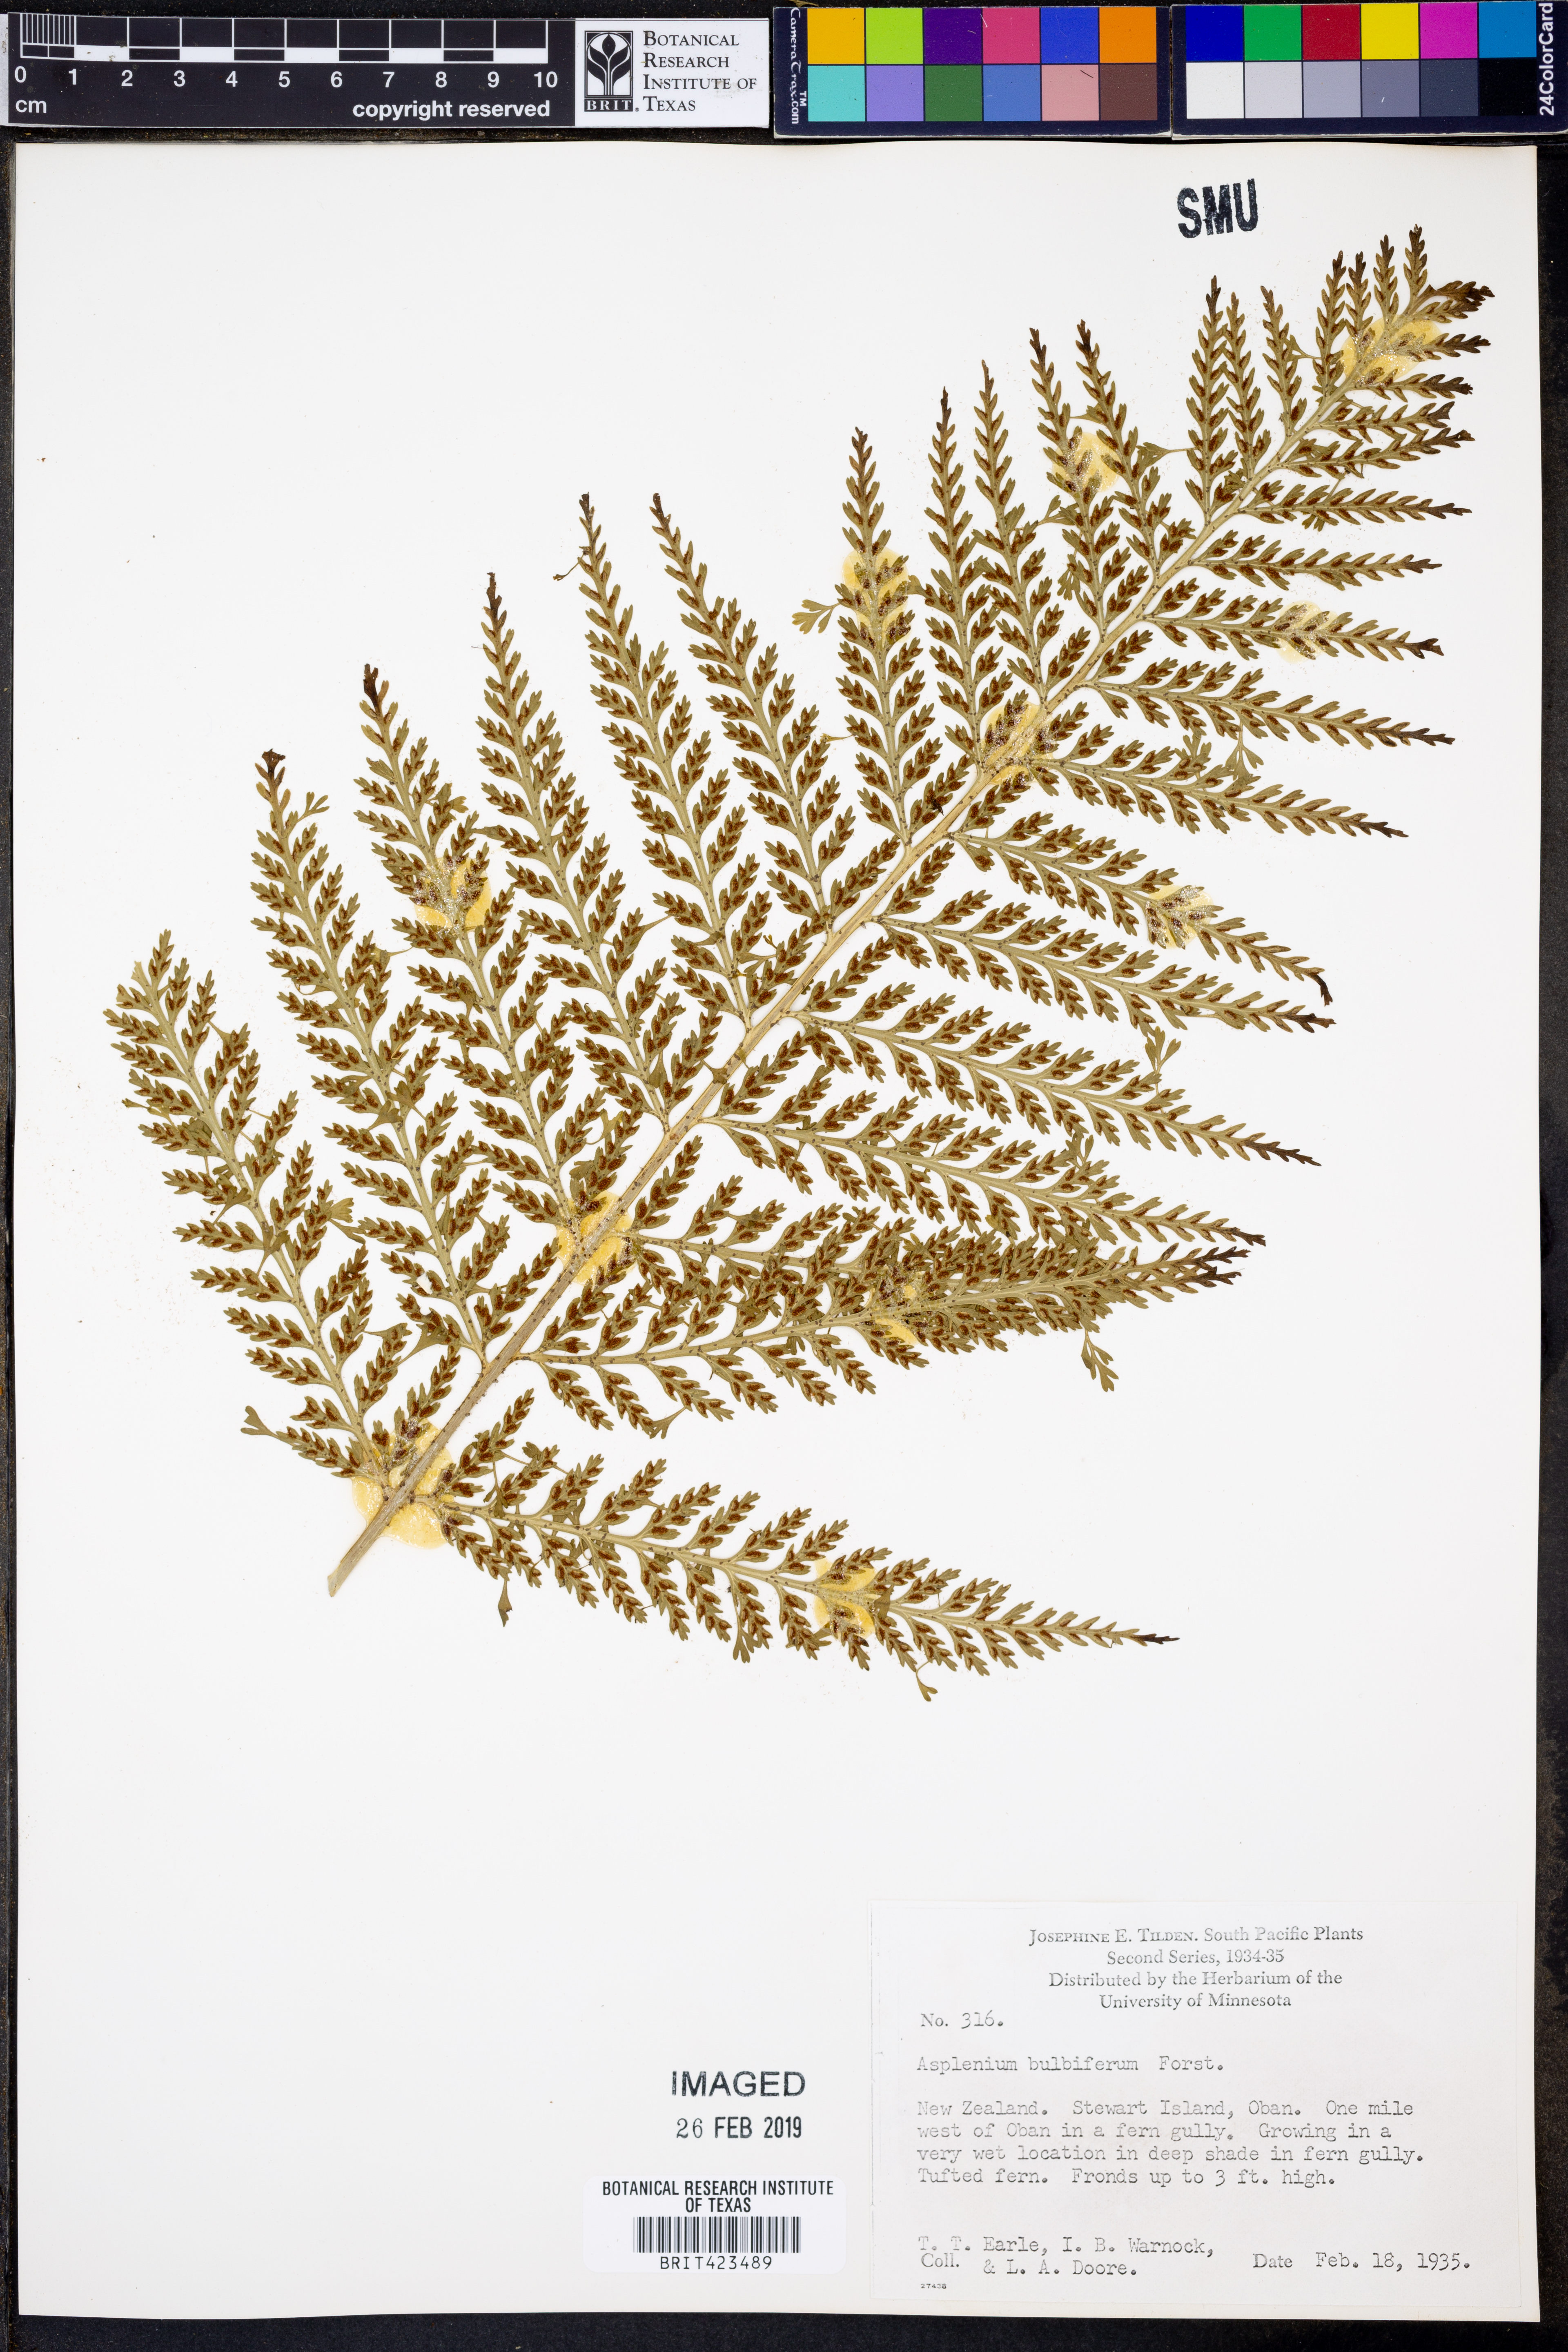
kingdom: Plantae
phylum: Tracheophyta
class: Polypodiopsida
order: Polypodiales
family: Aspleniaceae
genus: Asplenium
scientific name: Asplenium bulbiferum
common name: Mother fern
